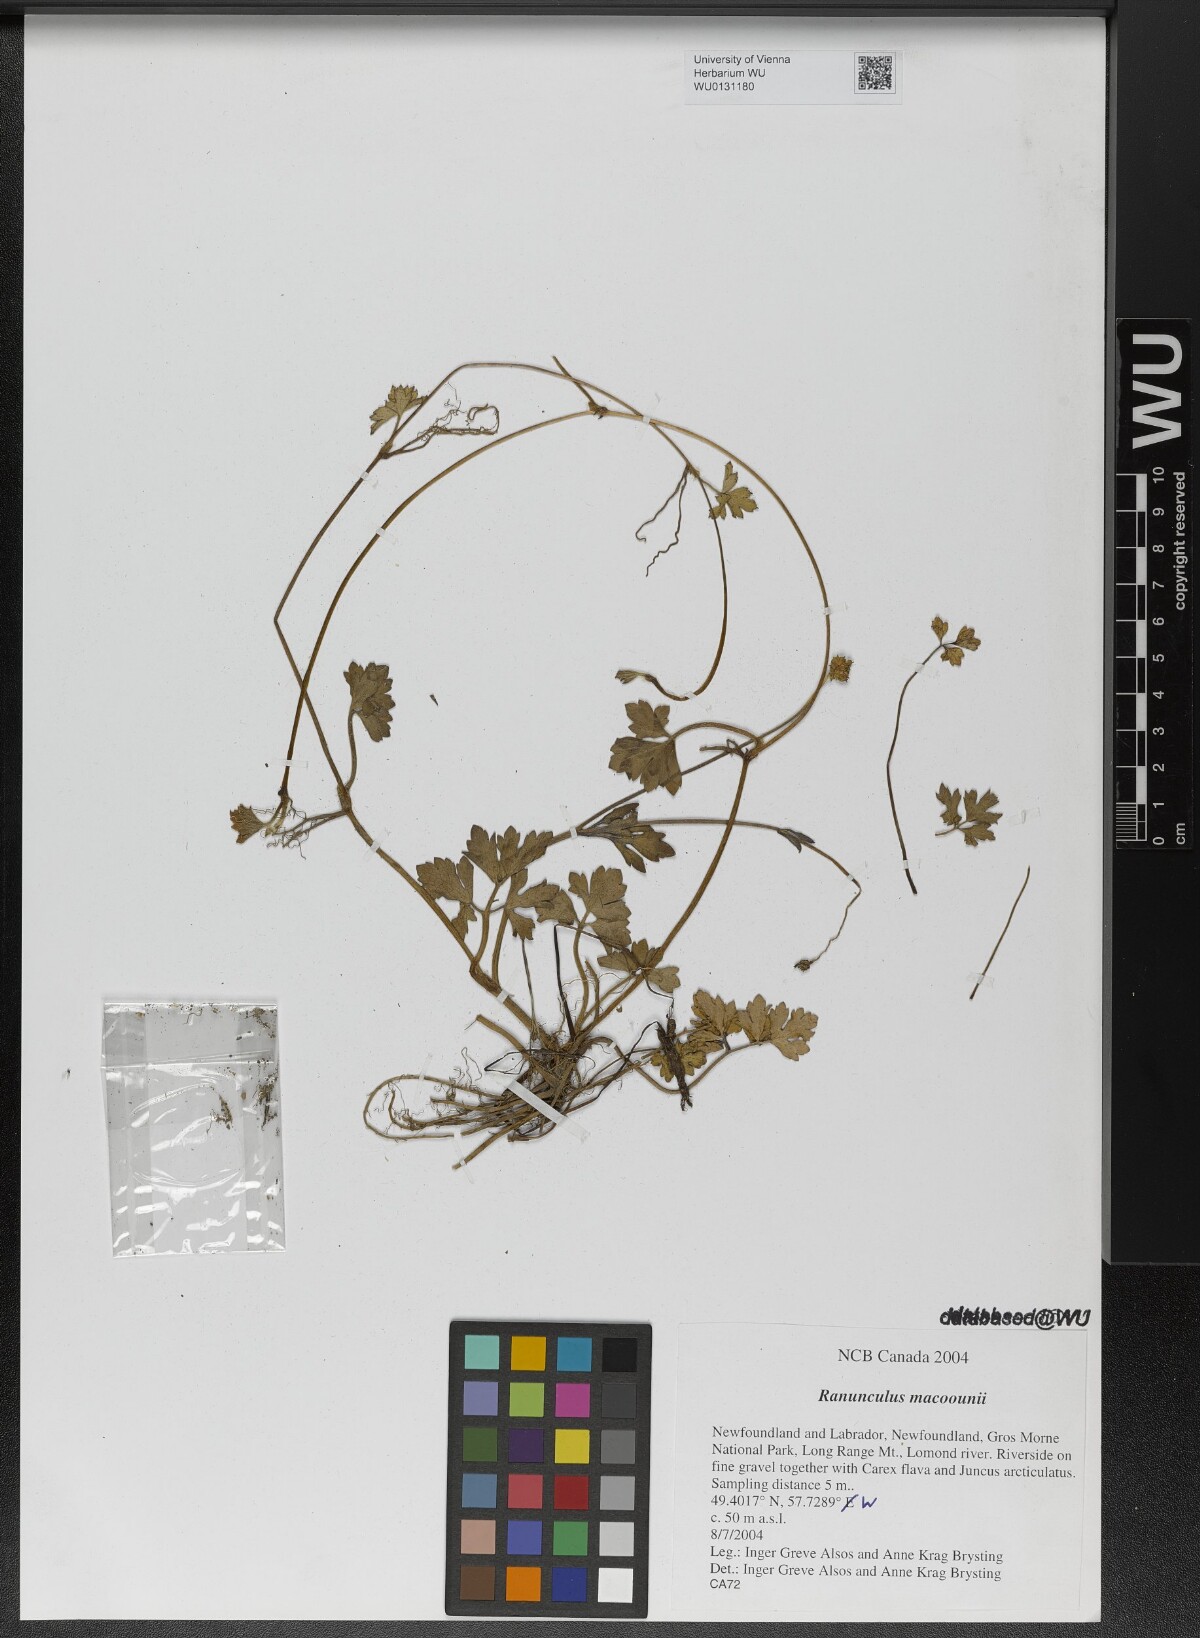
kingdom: Plantae
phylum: Tracheophyta
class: Magnoliopsida
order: Ranunculales
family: Ranunculaceae
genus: Ranunculus
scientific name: Ranunculus macounii
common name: Macoun's buttercup
